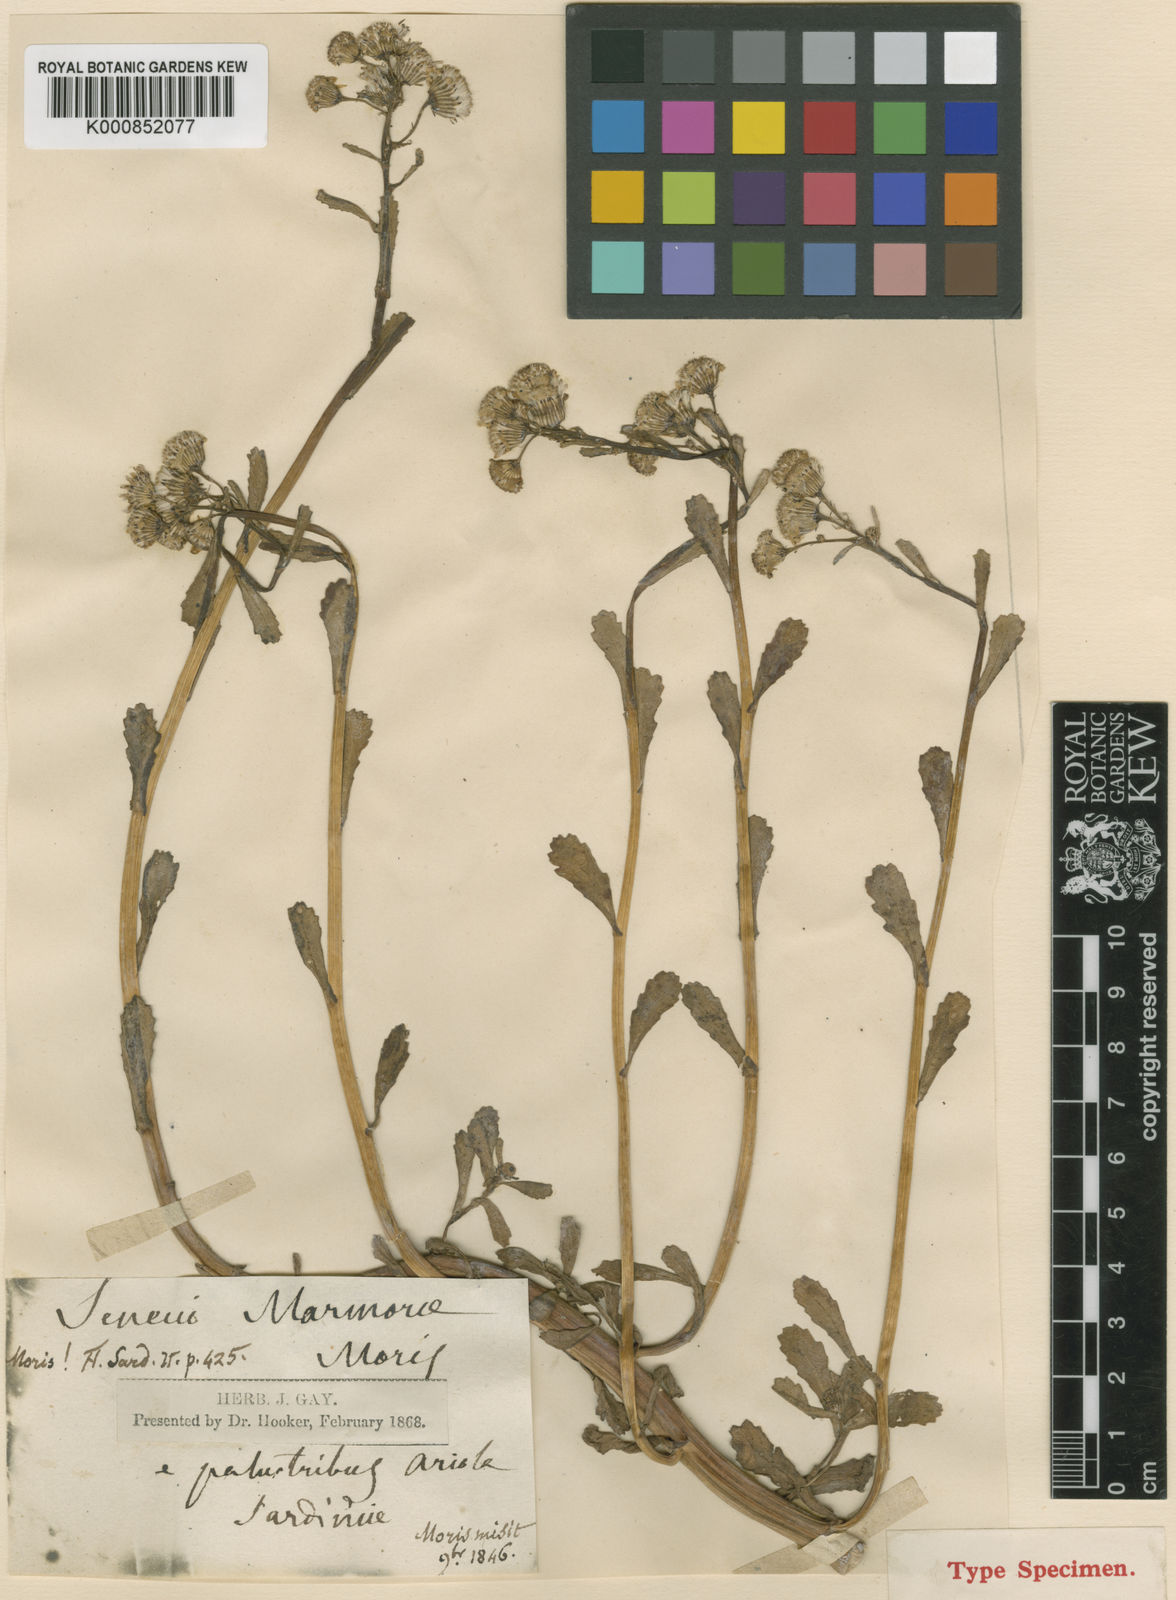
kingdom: Plantae
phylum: Tracheophyta
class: Magnoliopsida
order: Asterales
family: Asteraceae
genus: Senecio
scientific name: Senecio leucanthemifolius
